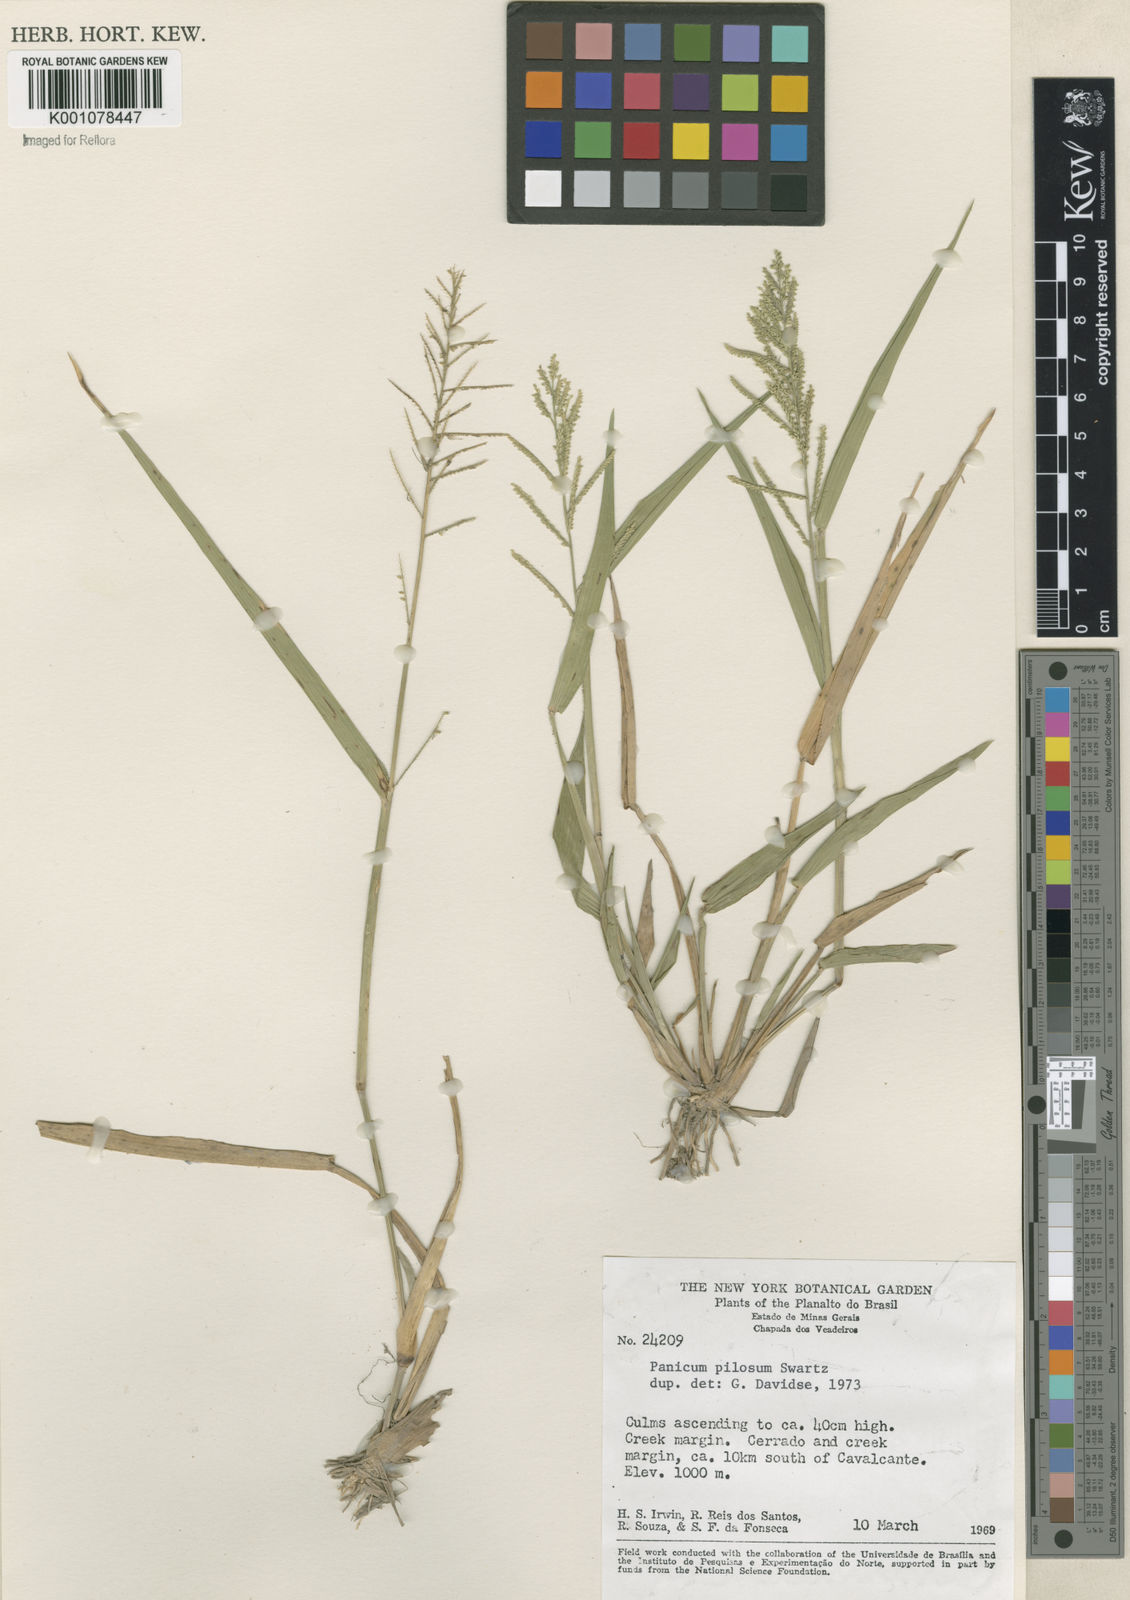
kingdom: Plantae
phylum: Tracheophyta
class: Liliopsida
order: Poales
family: Poaceae
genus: Rugoloa
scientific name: Rugoloa pilosa
